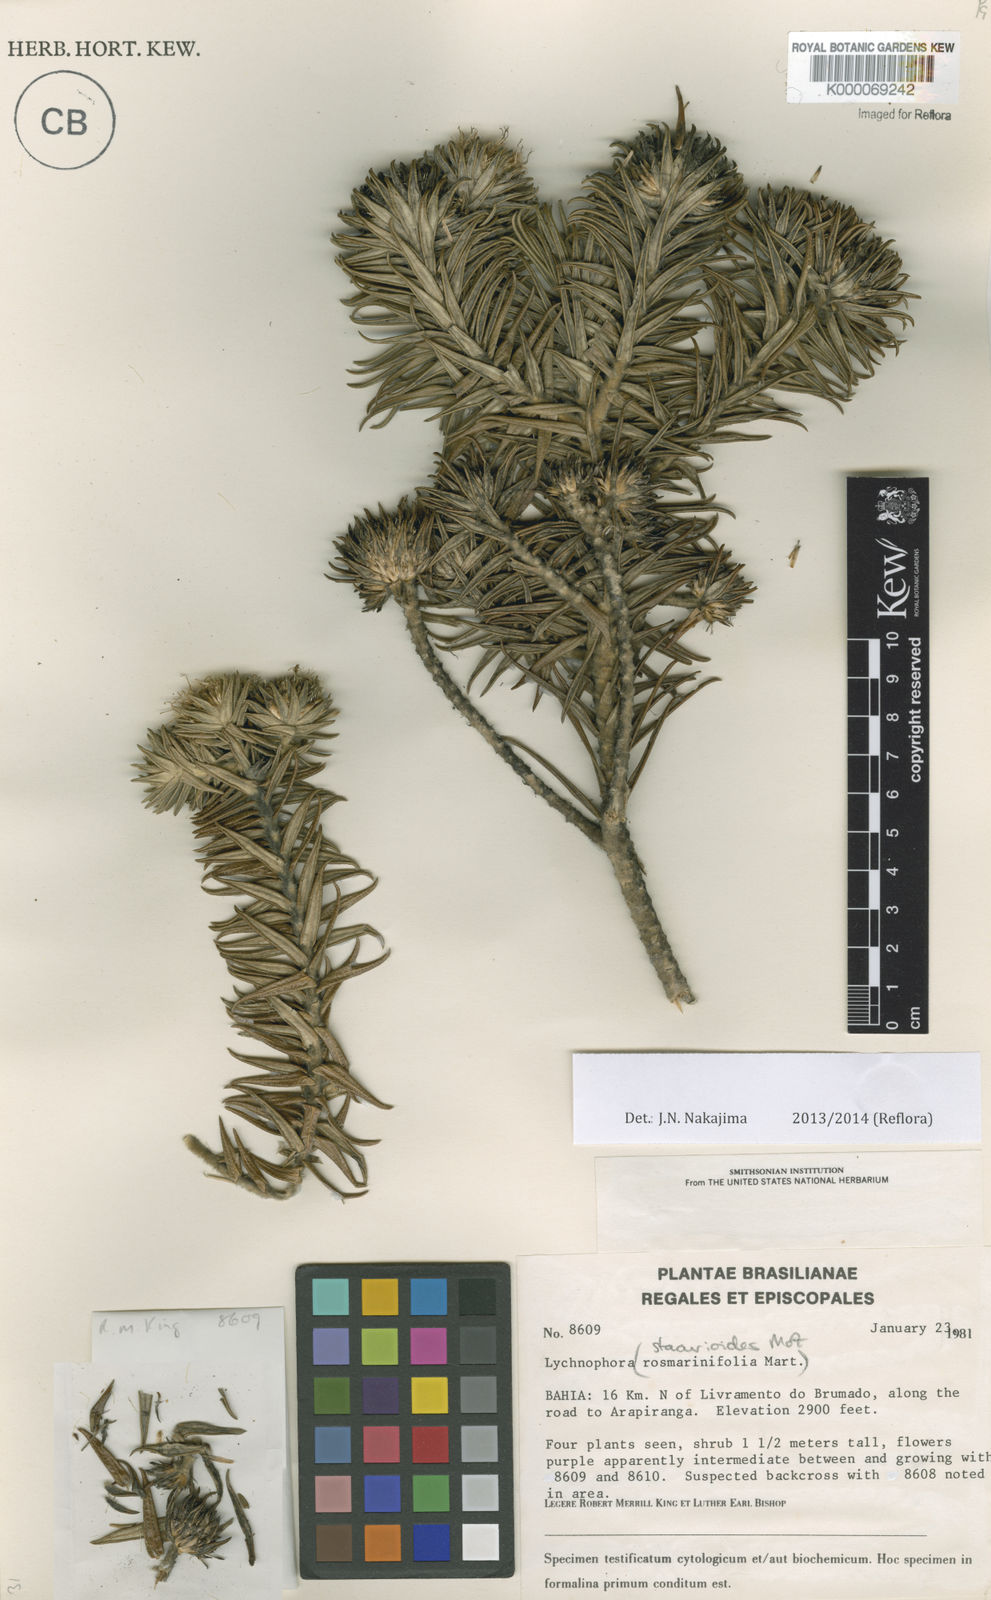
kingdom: Plantae
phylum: Tracheophyta
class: Magnoliopsida
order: Asterales
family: Asteraceae
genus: Lychnophora
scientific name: Lychnophora
